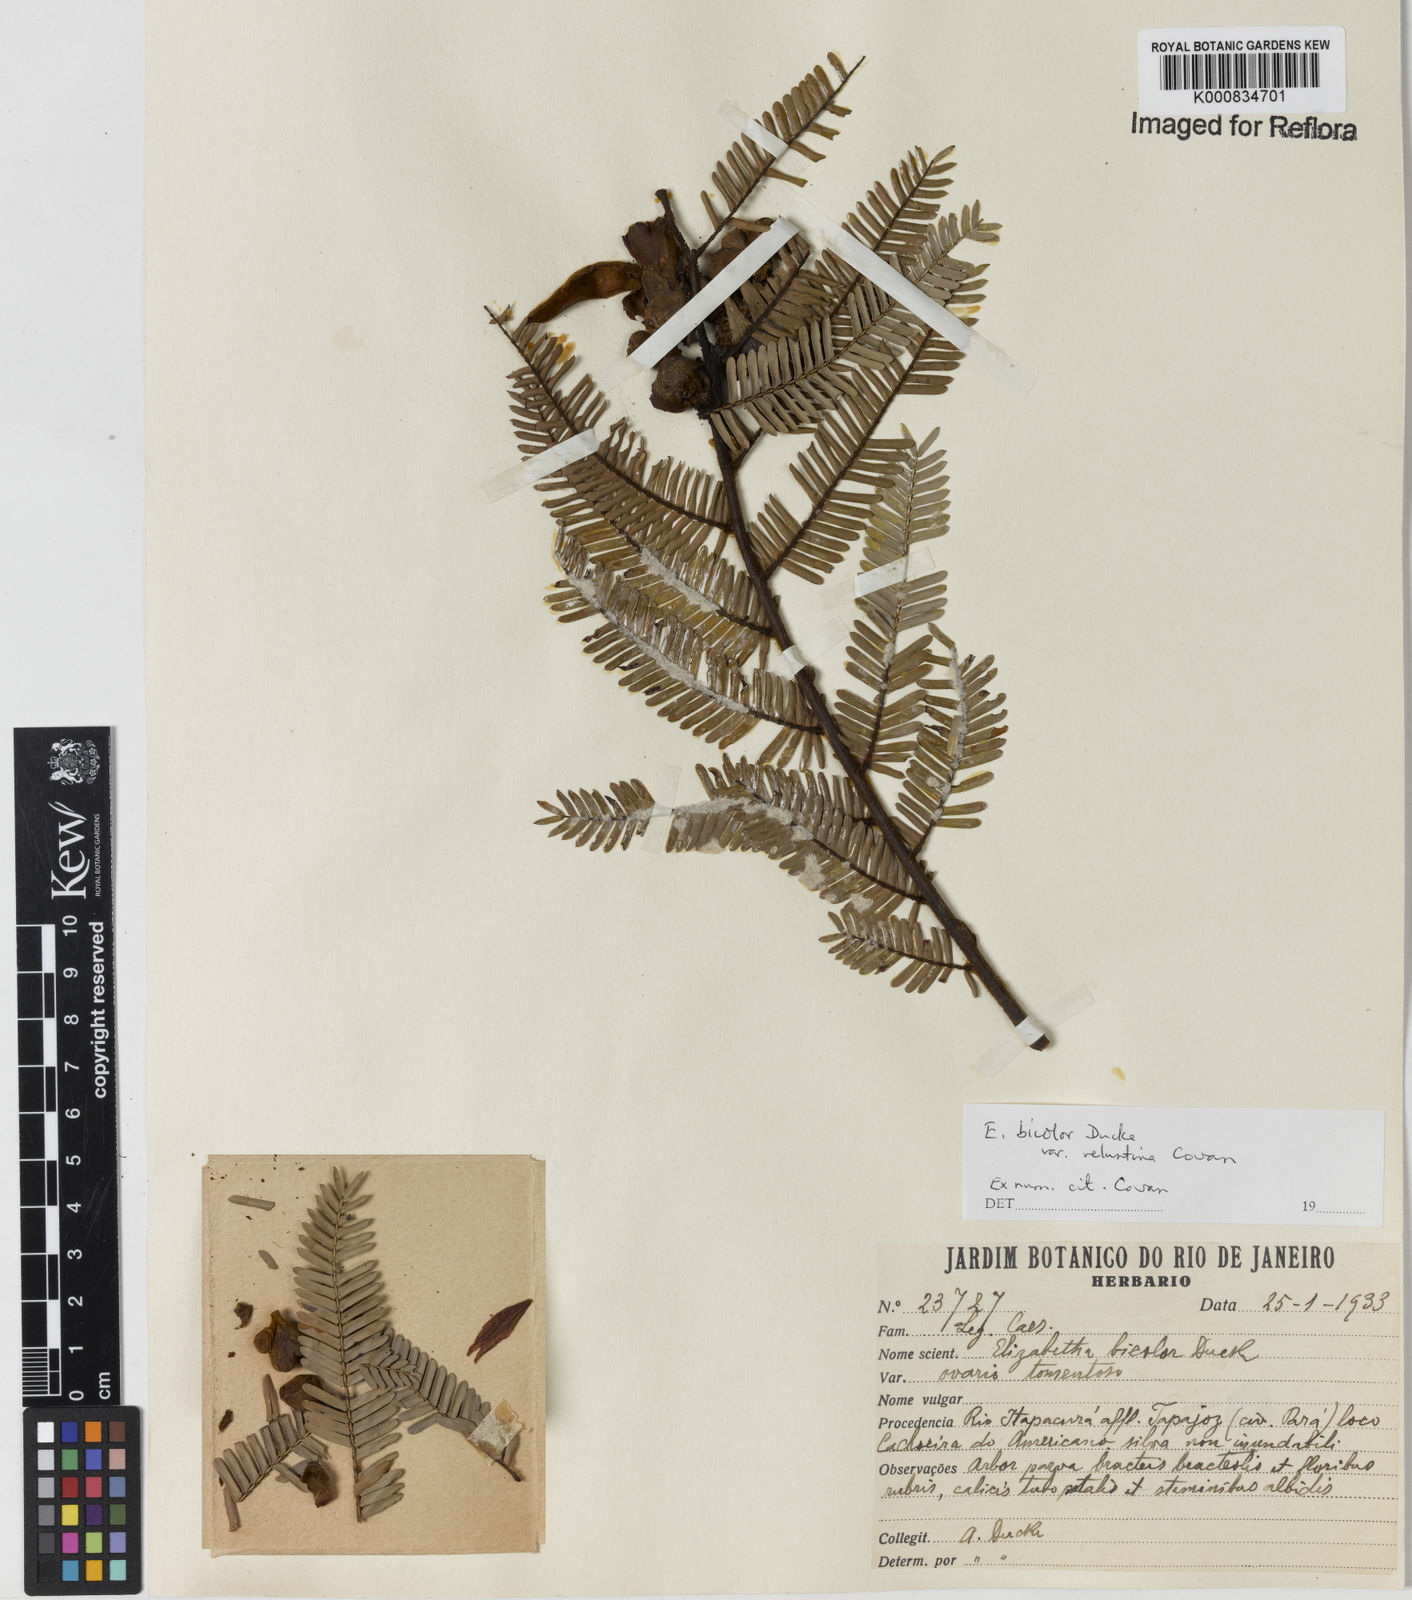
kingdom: Plantae
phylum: Tracheophyta
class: Magnoliopsida
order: Fabales
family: Fabaceae
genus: Paloue
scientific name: Paloue bicolor
